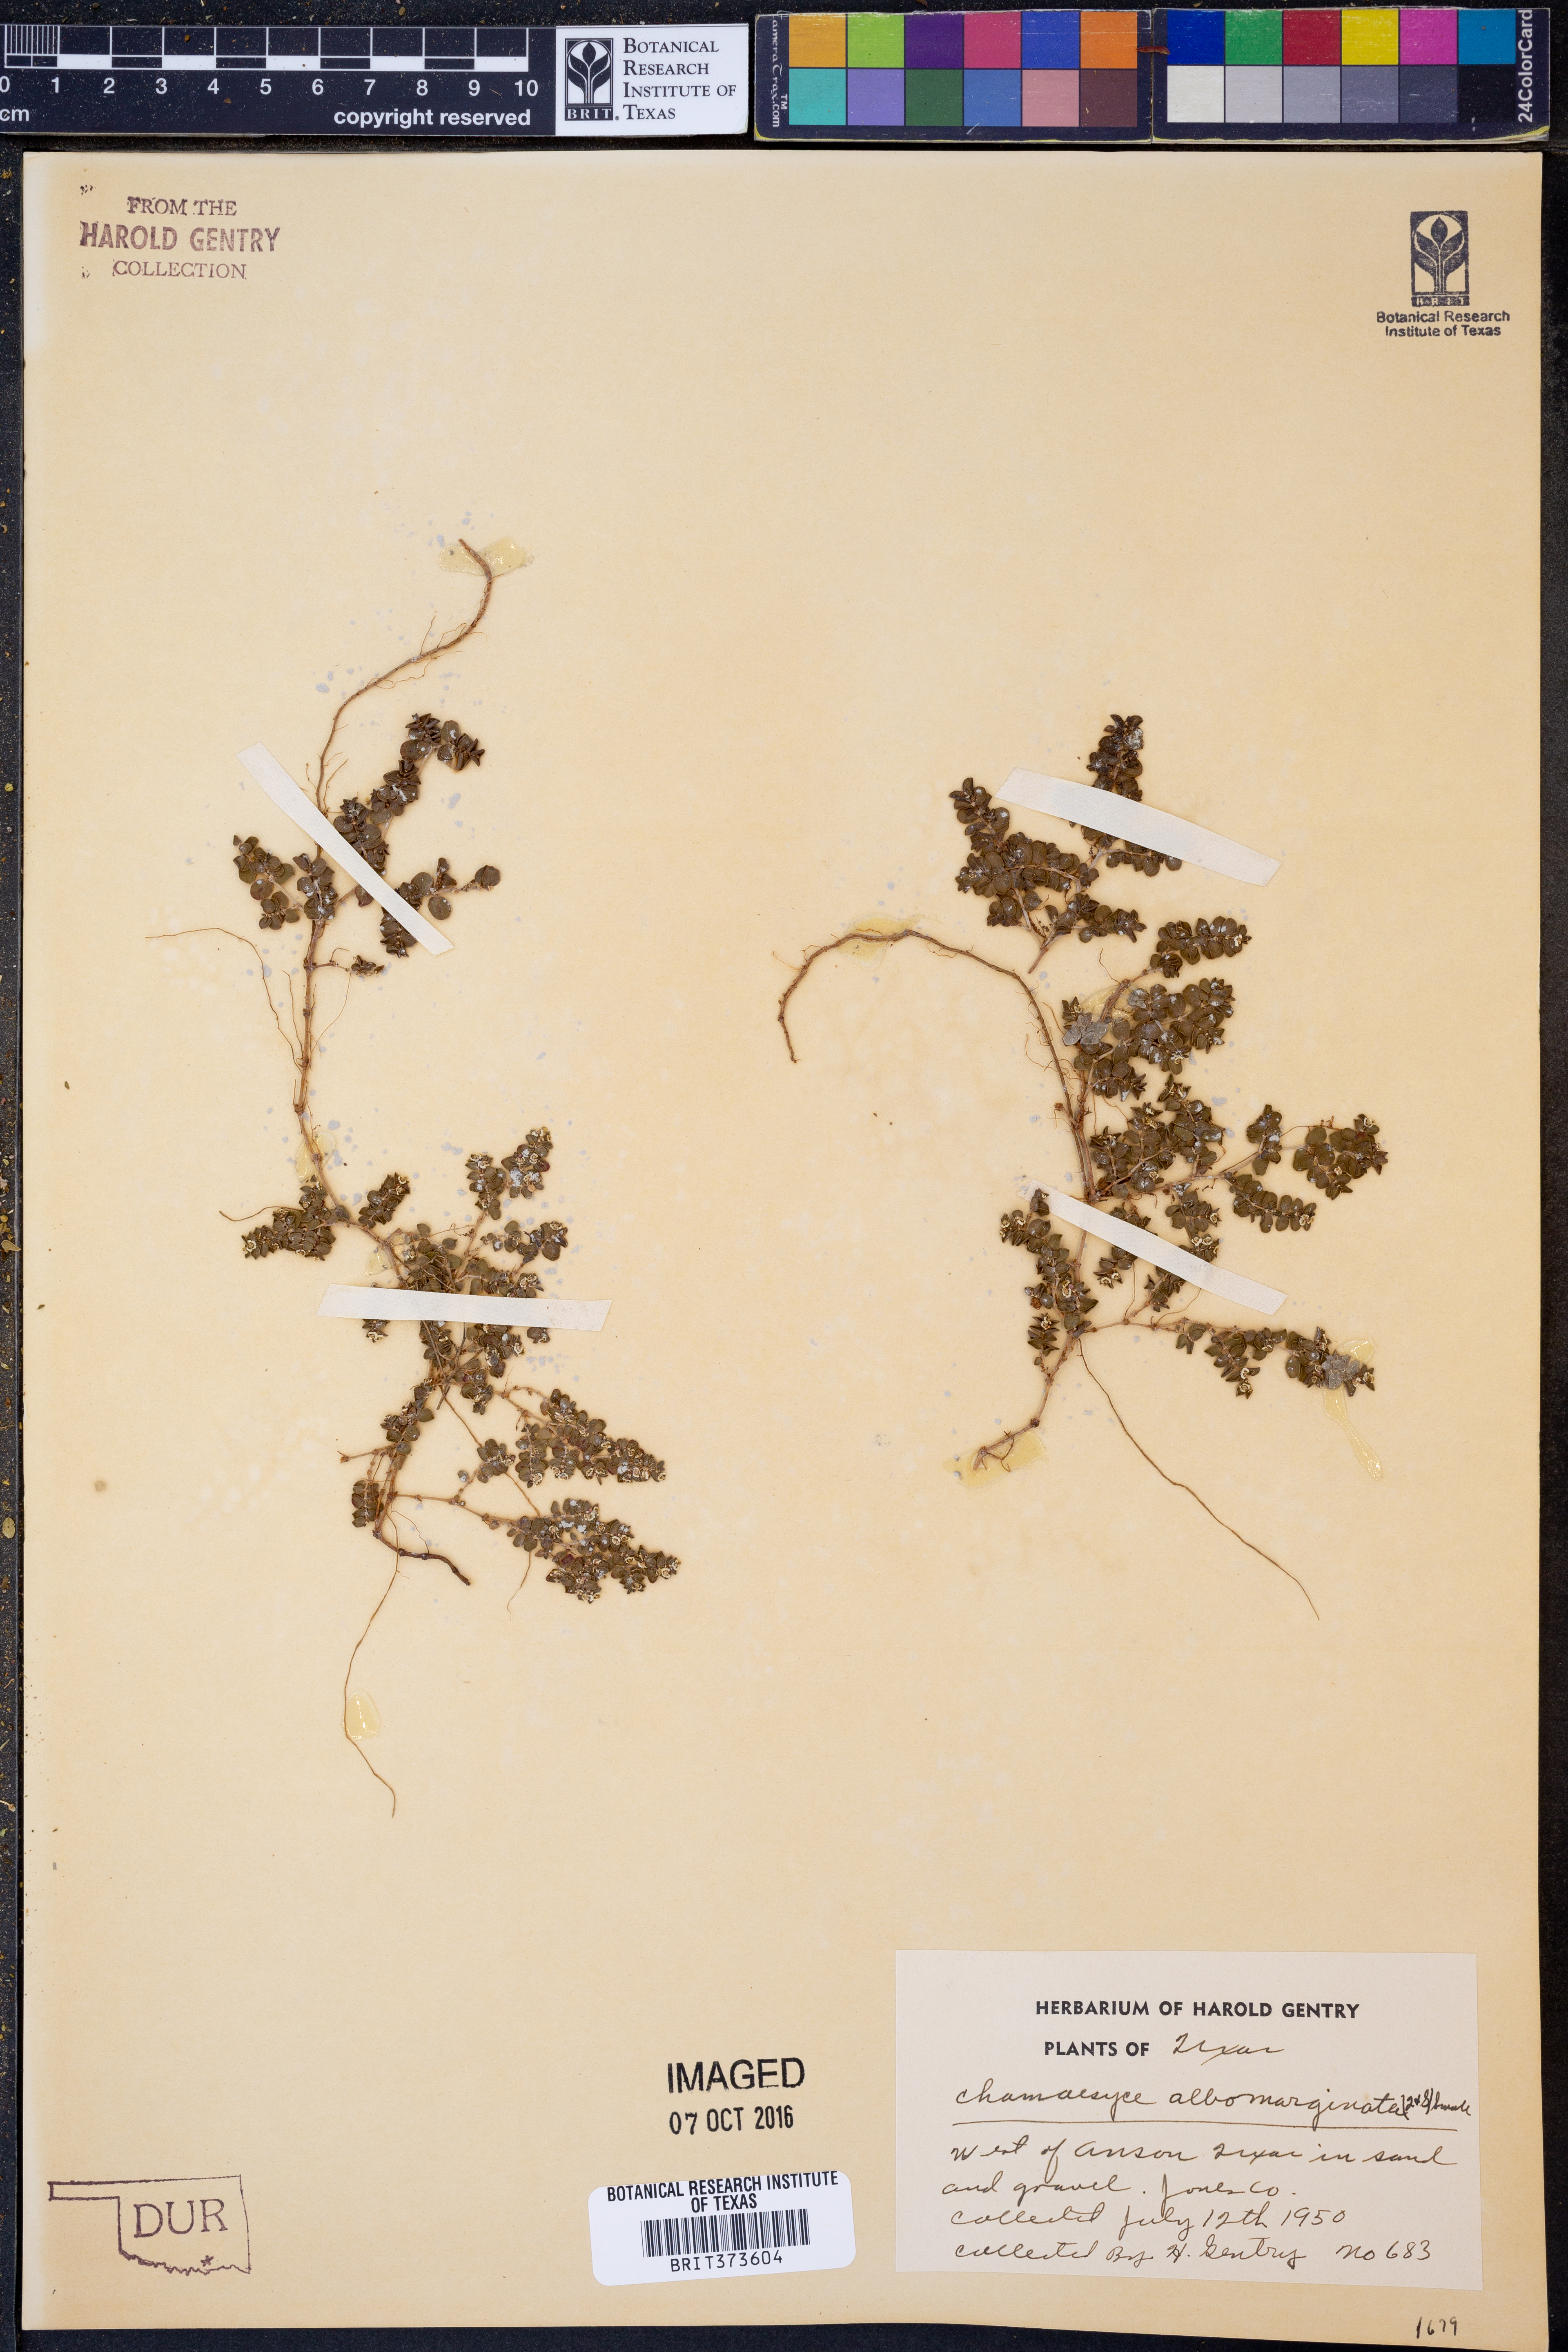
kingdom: Plantae
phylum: Tracheophyta
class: Magnoliopsida
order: Malpighiales
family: Euphorbiaceae
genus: Euphorbia
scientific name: Euphorbia albomarginata
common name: Whitemargin sandmat
